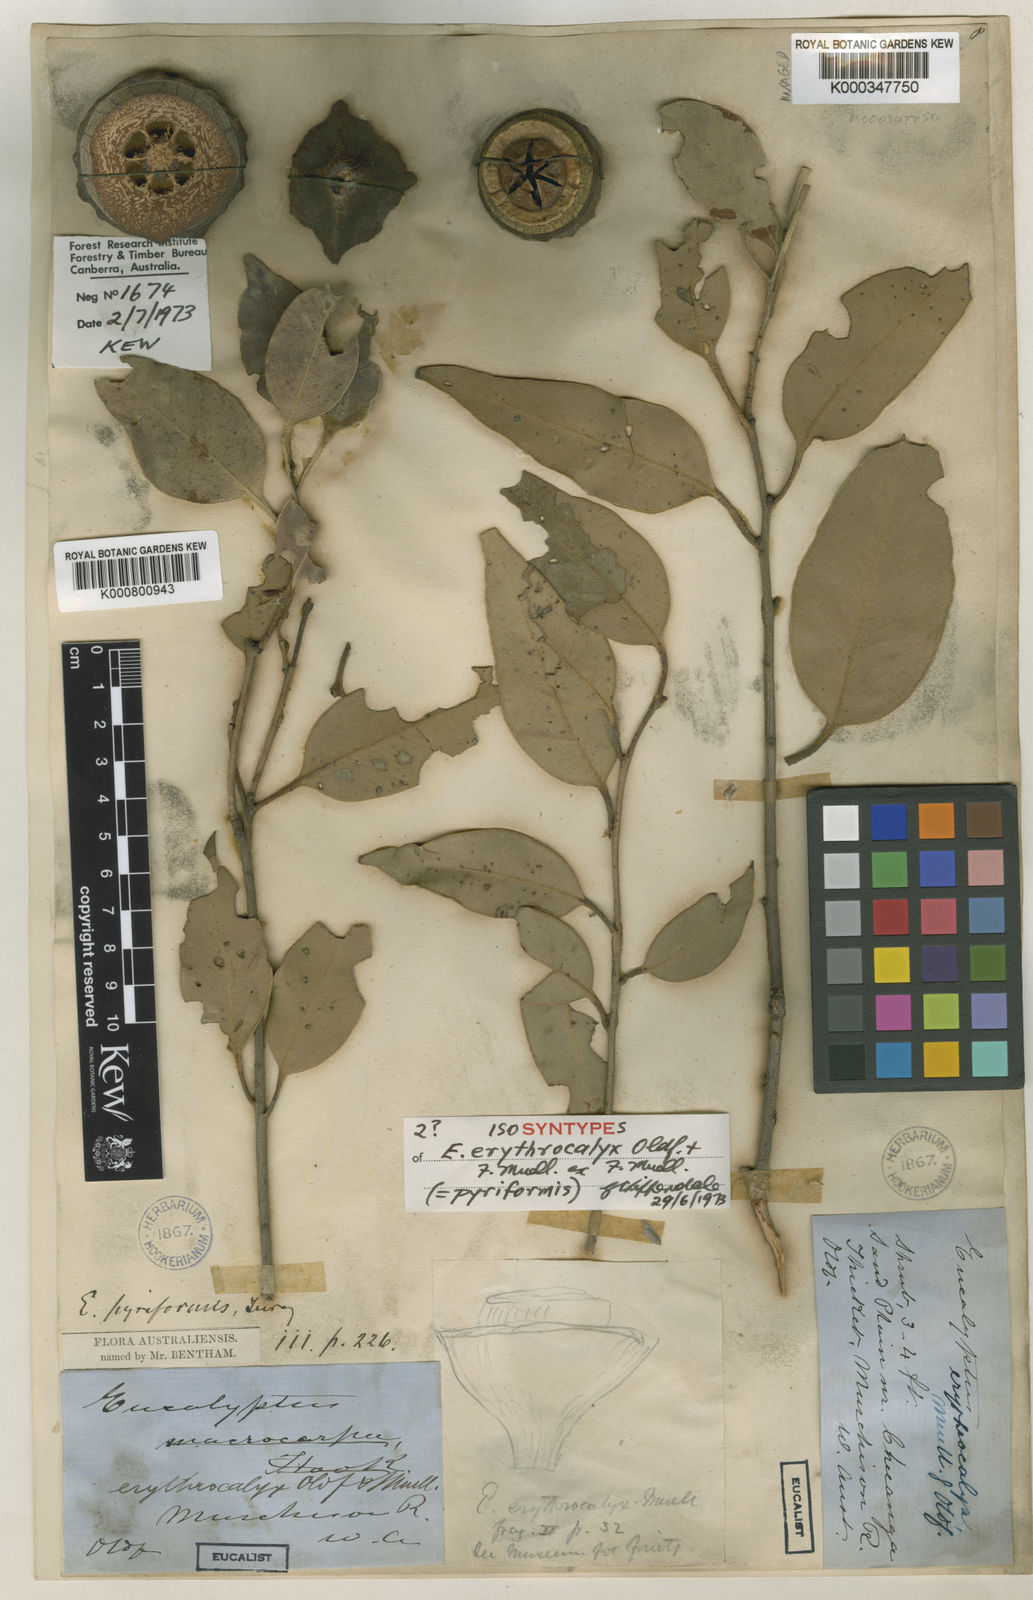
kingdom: Plantae
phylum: Tracheophyta
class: Magnoliopsida
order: Myrtales
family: Myrtaceae
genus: Eucalyptus
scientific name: Eucalyptus pyriformis
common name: Dowerin rose
